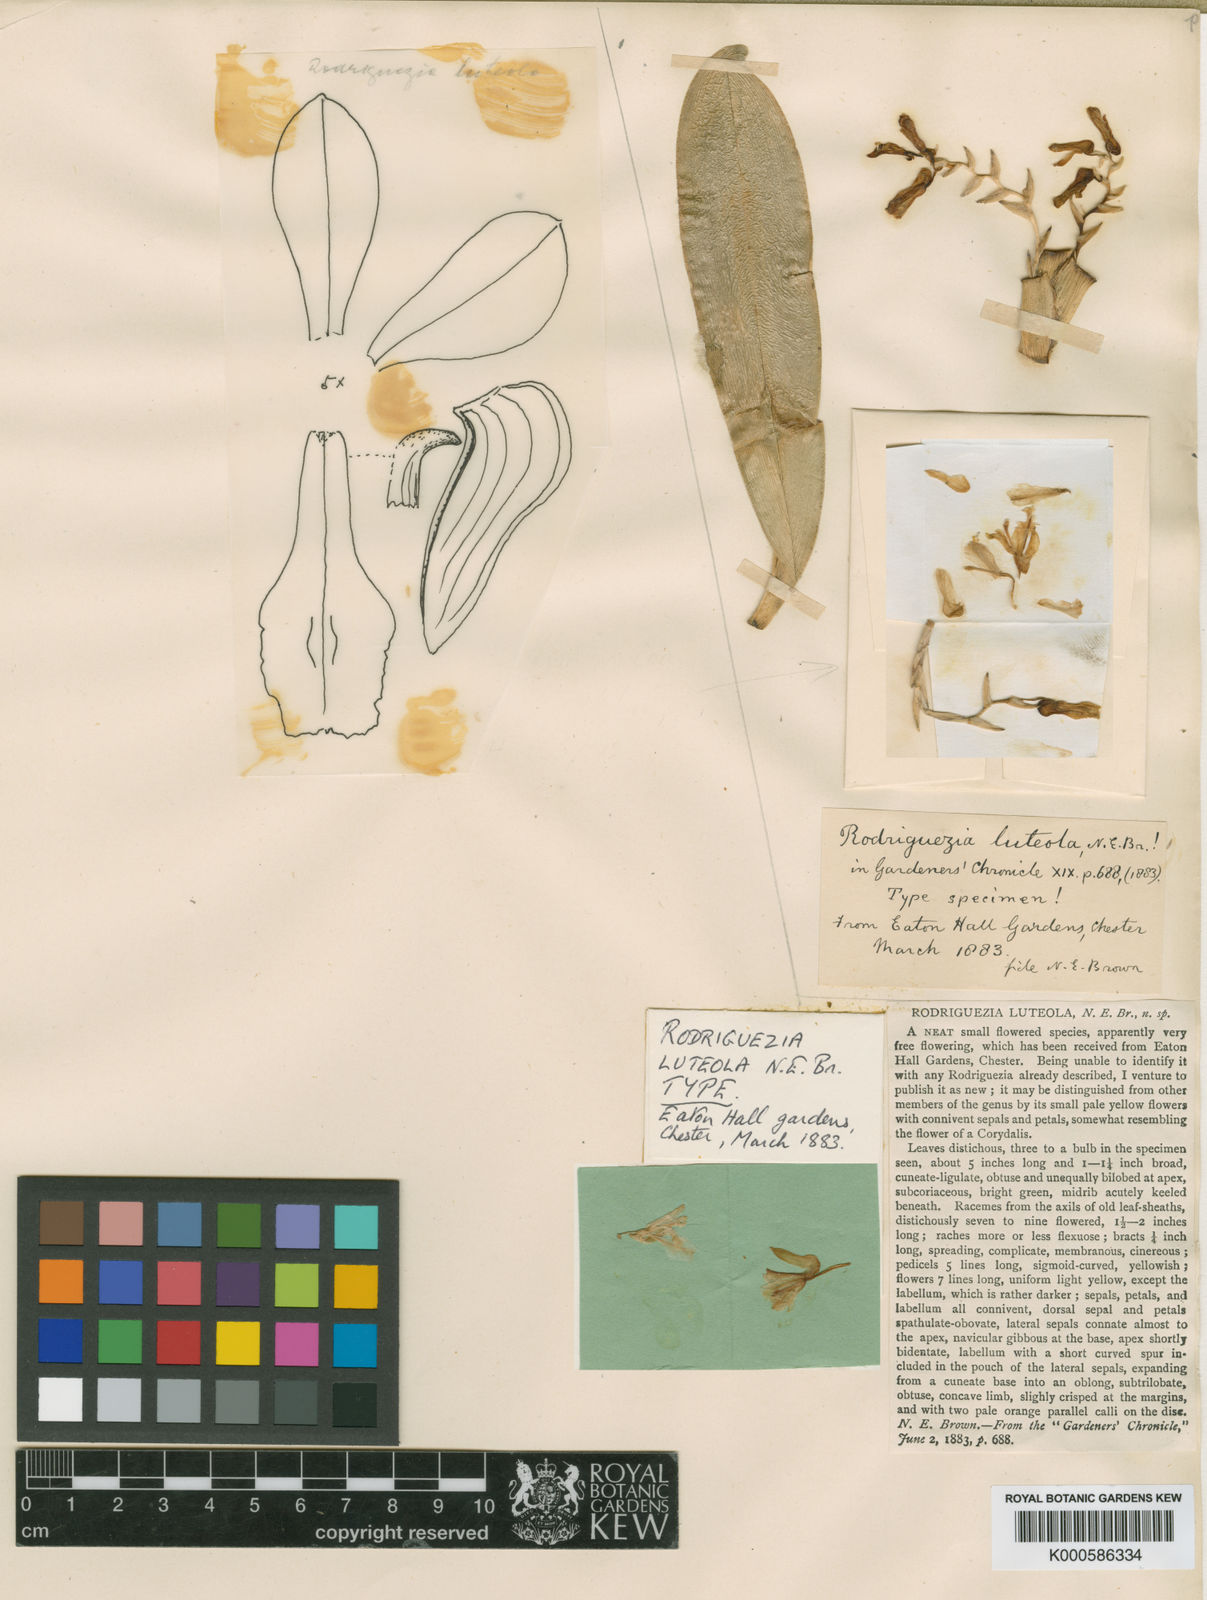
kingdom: Plantae
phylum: Tracheophyta
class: Liliopsida
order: Asparagales
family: Orchidaceae
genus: Rodriguezia
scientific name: Rodriguezia luteola
